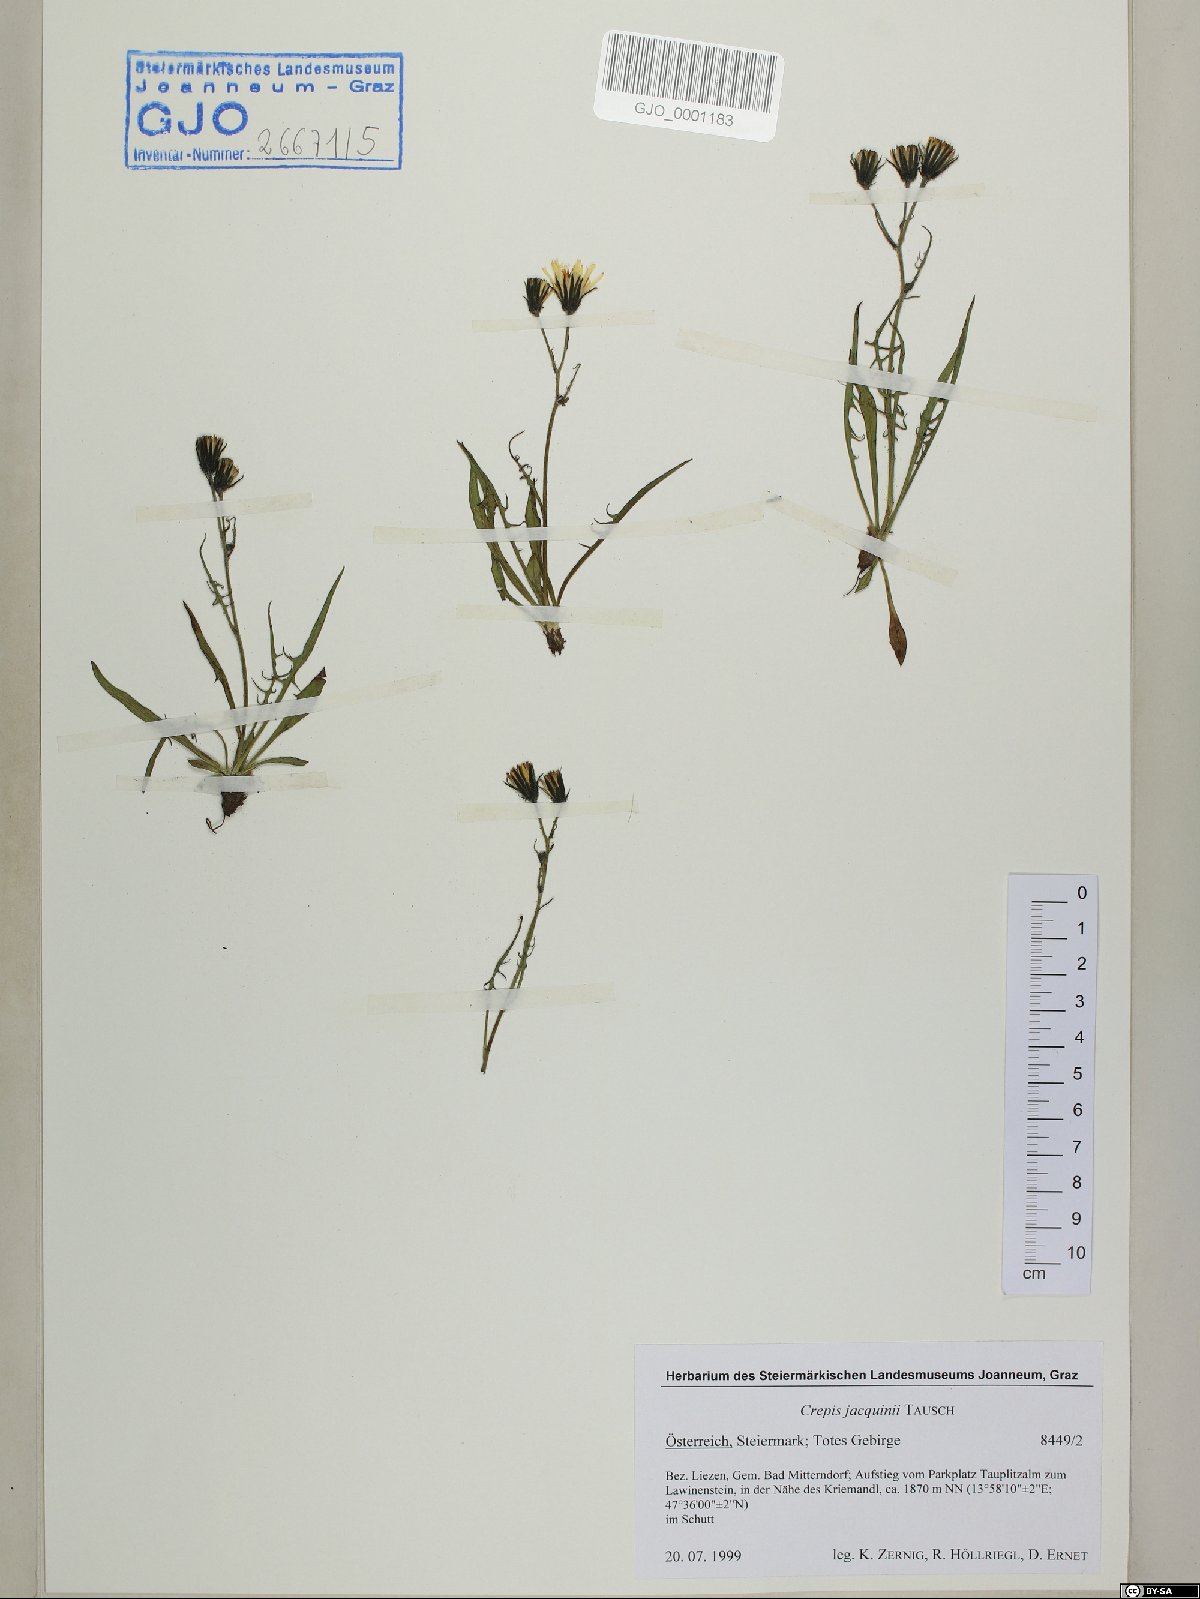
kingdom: Plantae
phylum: Tracheophyta
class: Magnoliopsida
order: Asterales
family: Asteraceae
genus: Crepis
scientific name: Crepis jacquinii
